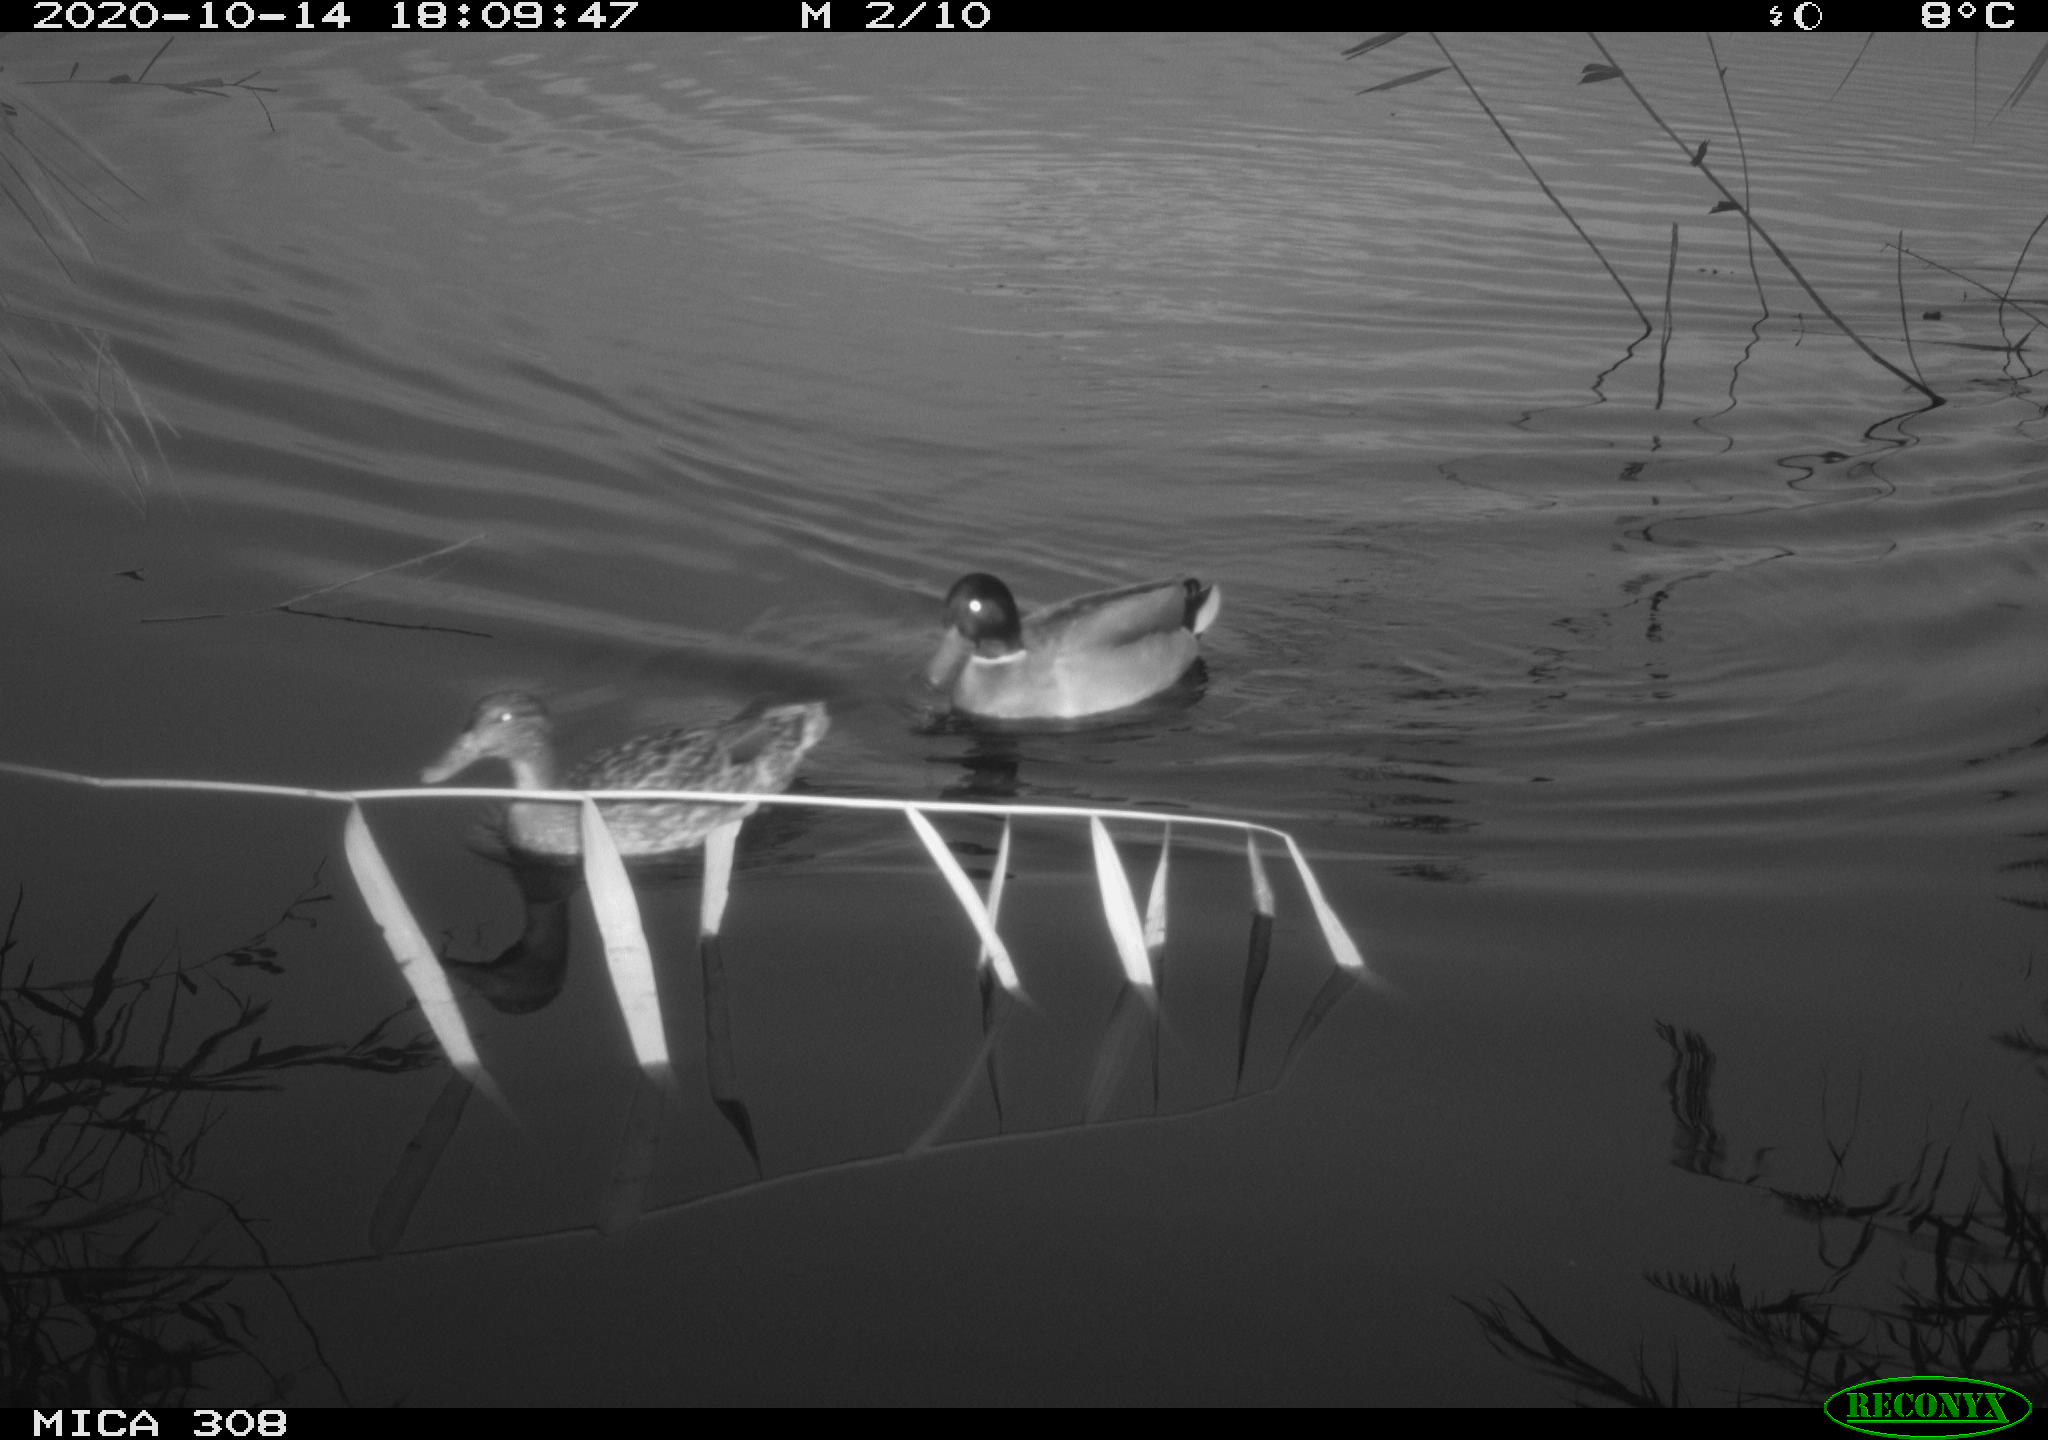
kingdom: Animalia
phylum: Chordata
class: Aves
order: Anseriformes
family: Anatidae
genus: Anas
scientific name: Anas platyrhynchos
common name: Mallard
